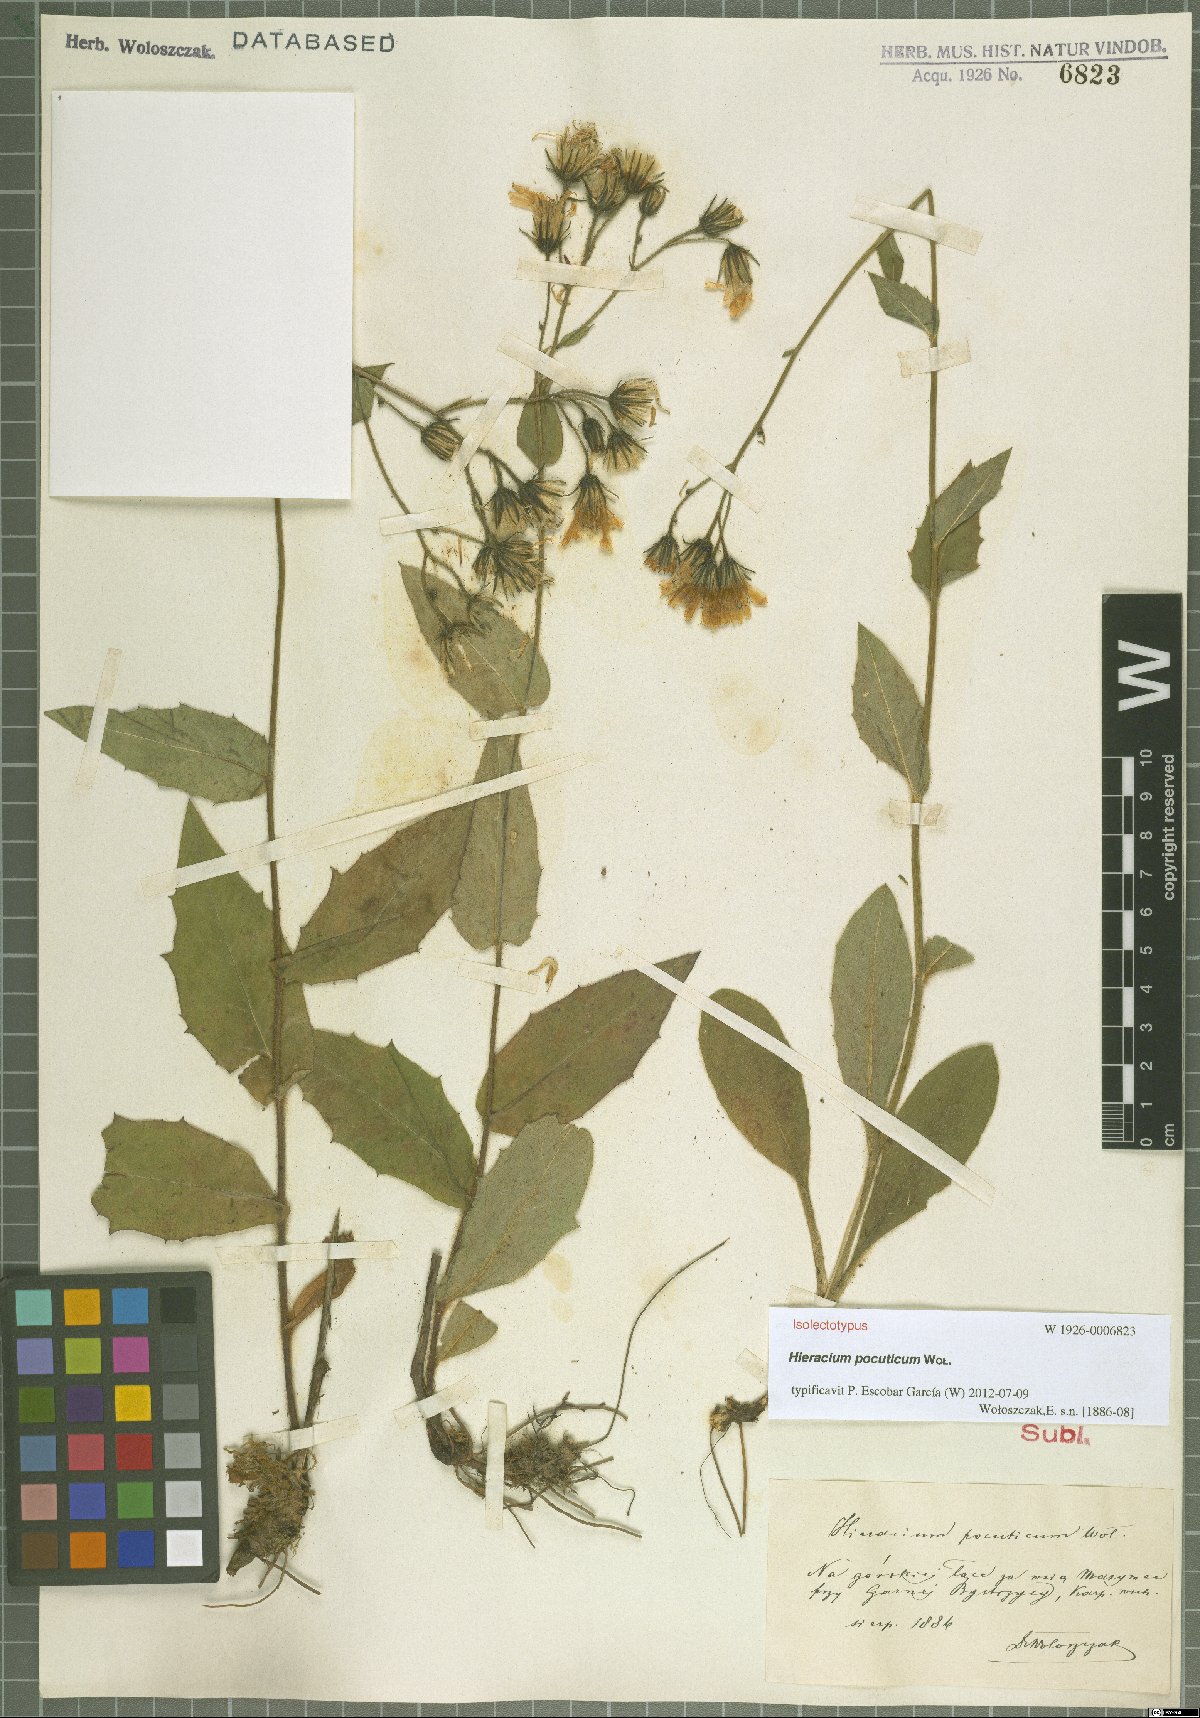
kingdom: Plantae
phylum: Tracheophyta
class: Magnoliopsida
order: Asterales
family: Asteraceae
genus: Hieracium
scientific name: Hieracium pocuticum
